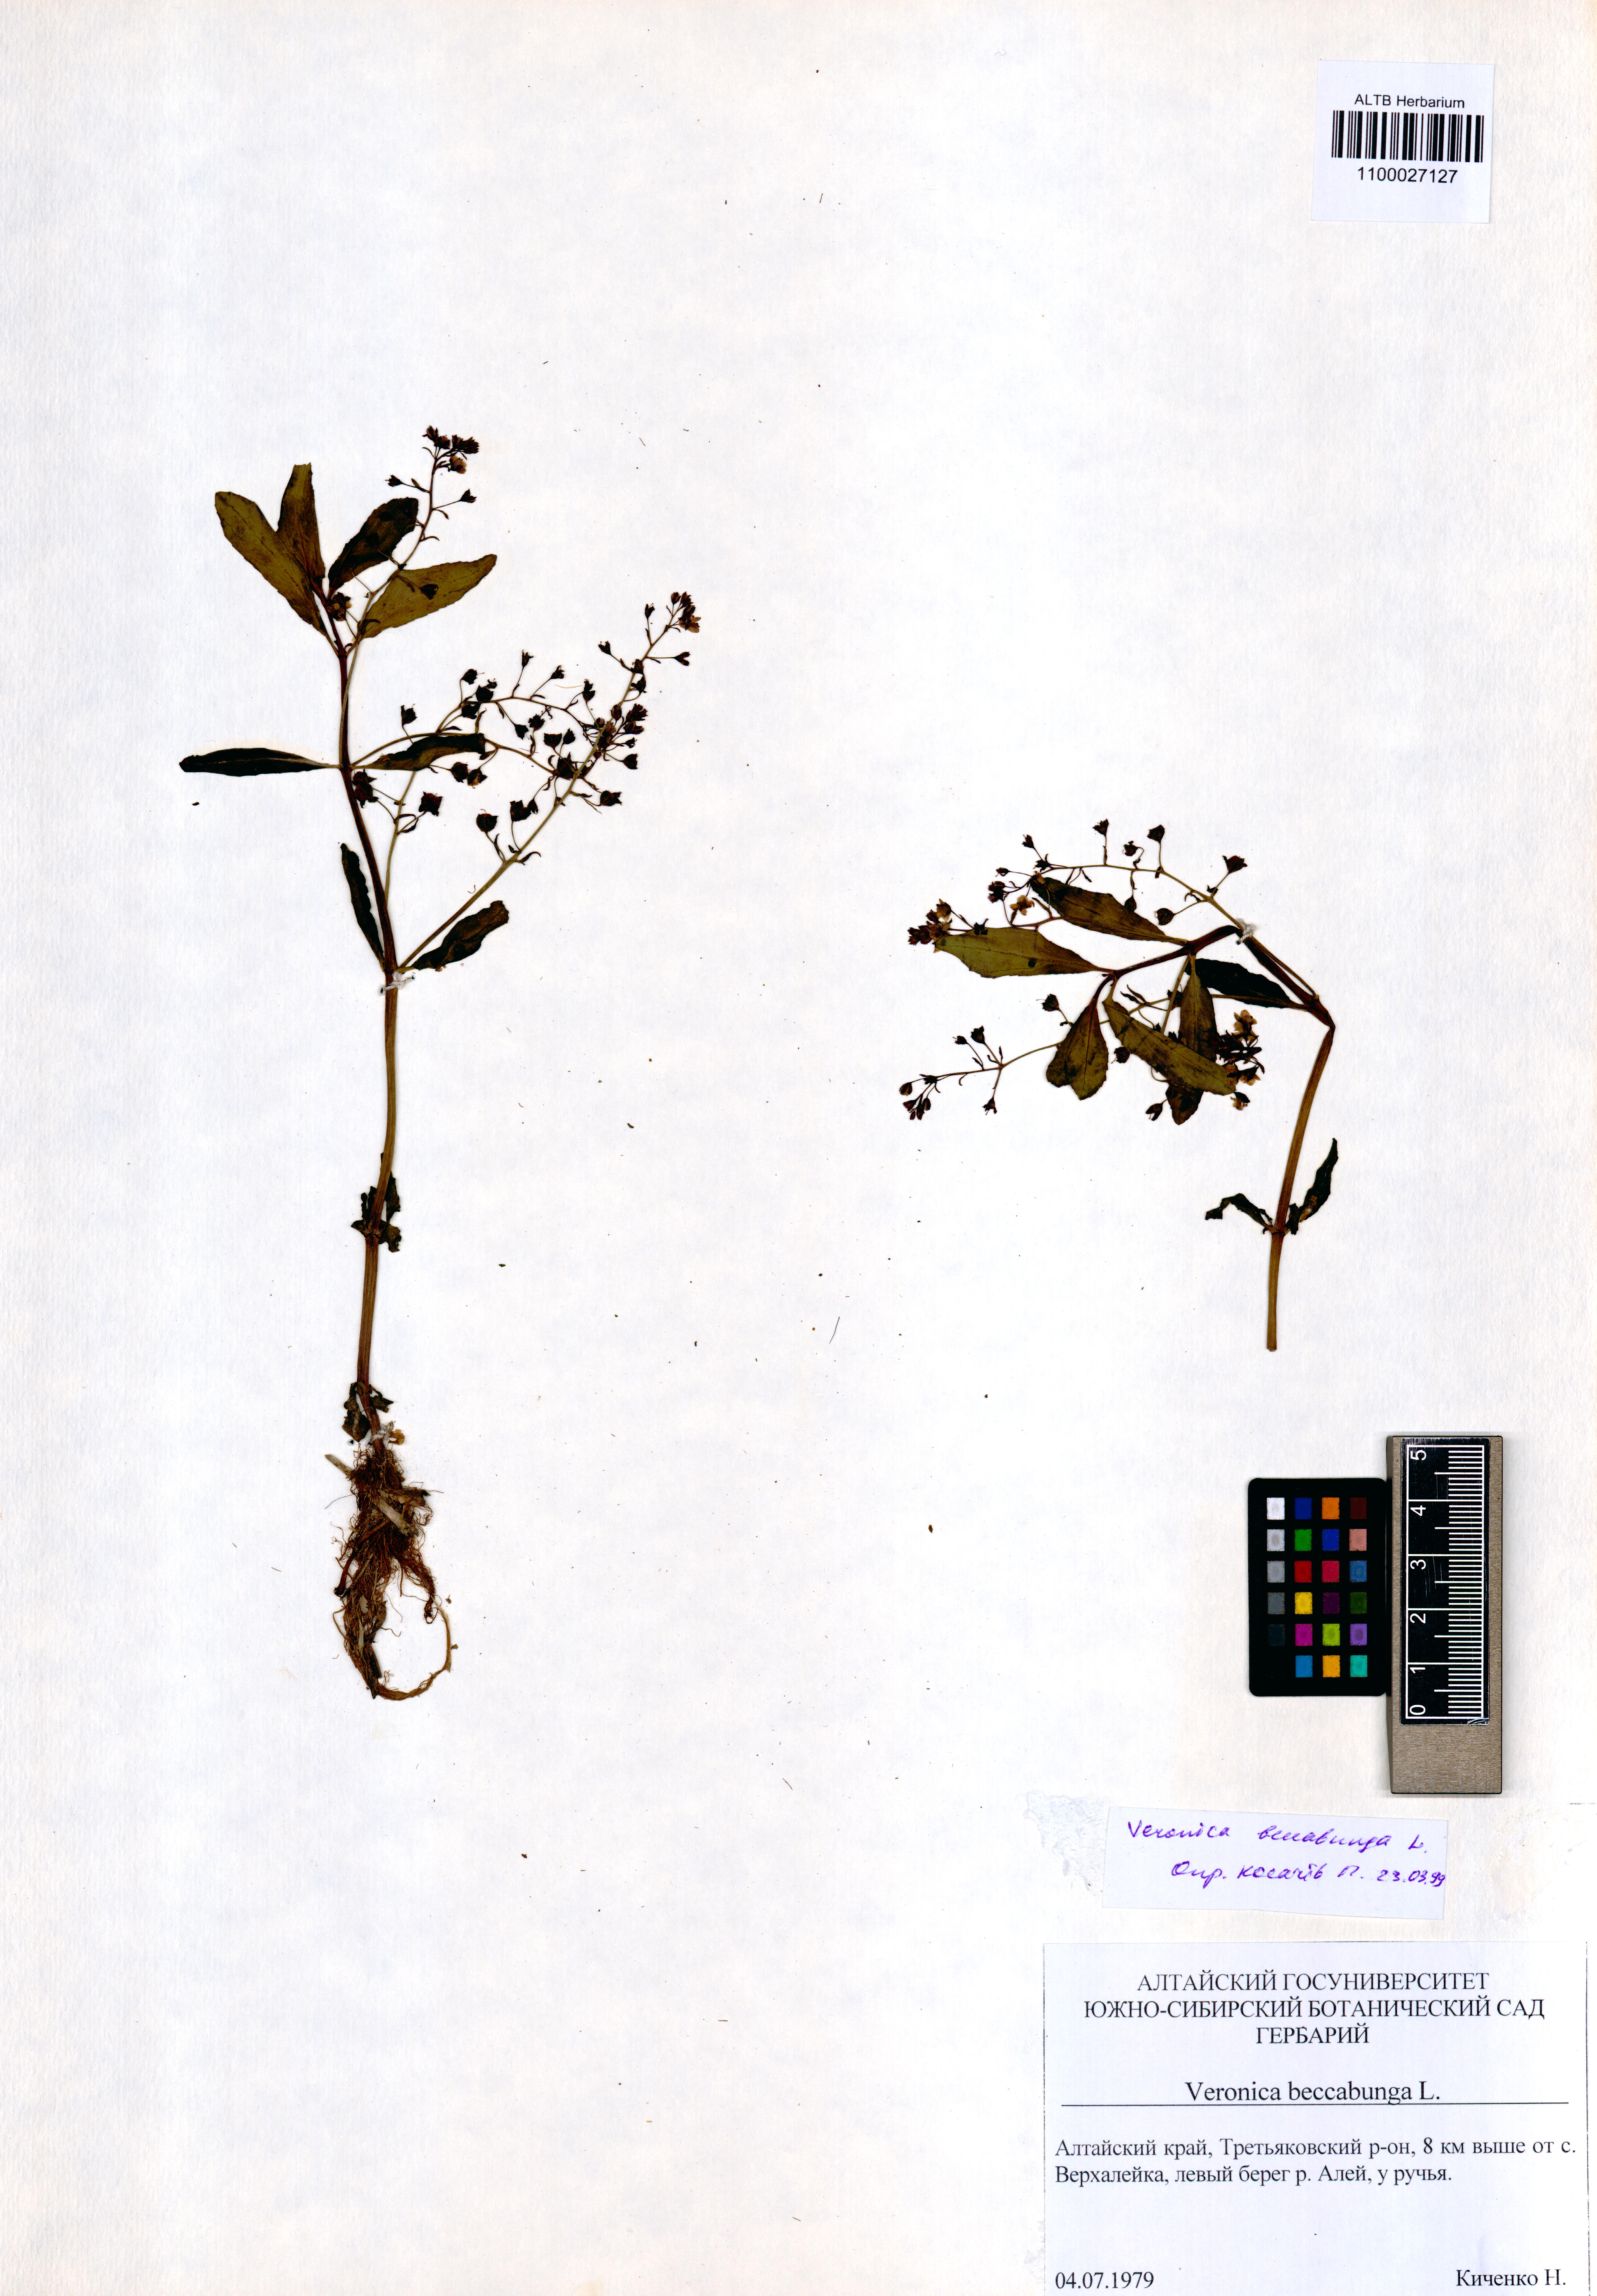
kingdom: Plantae
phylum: Tracheophyta
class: Magnoliopsida
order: Lamiales
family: Plantaginaceae
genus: Veronica
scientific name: Veronica beccabunga
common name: Brooklime
